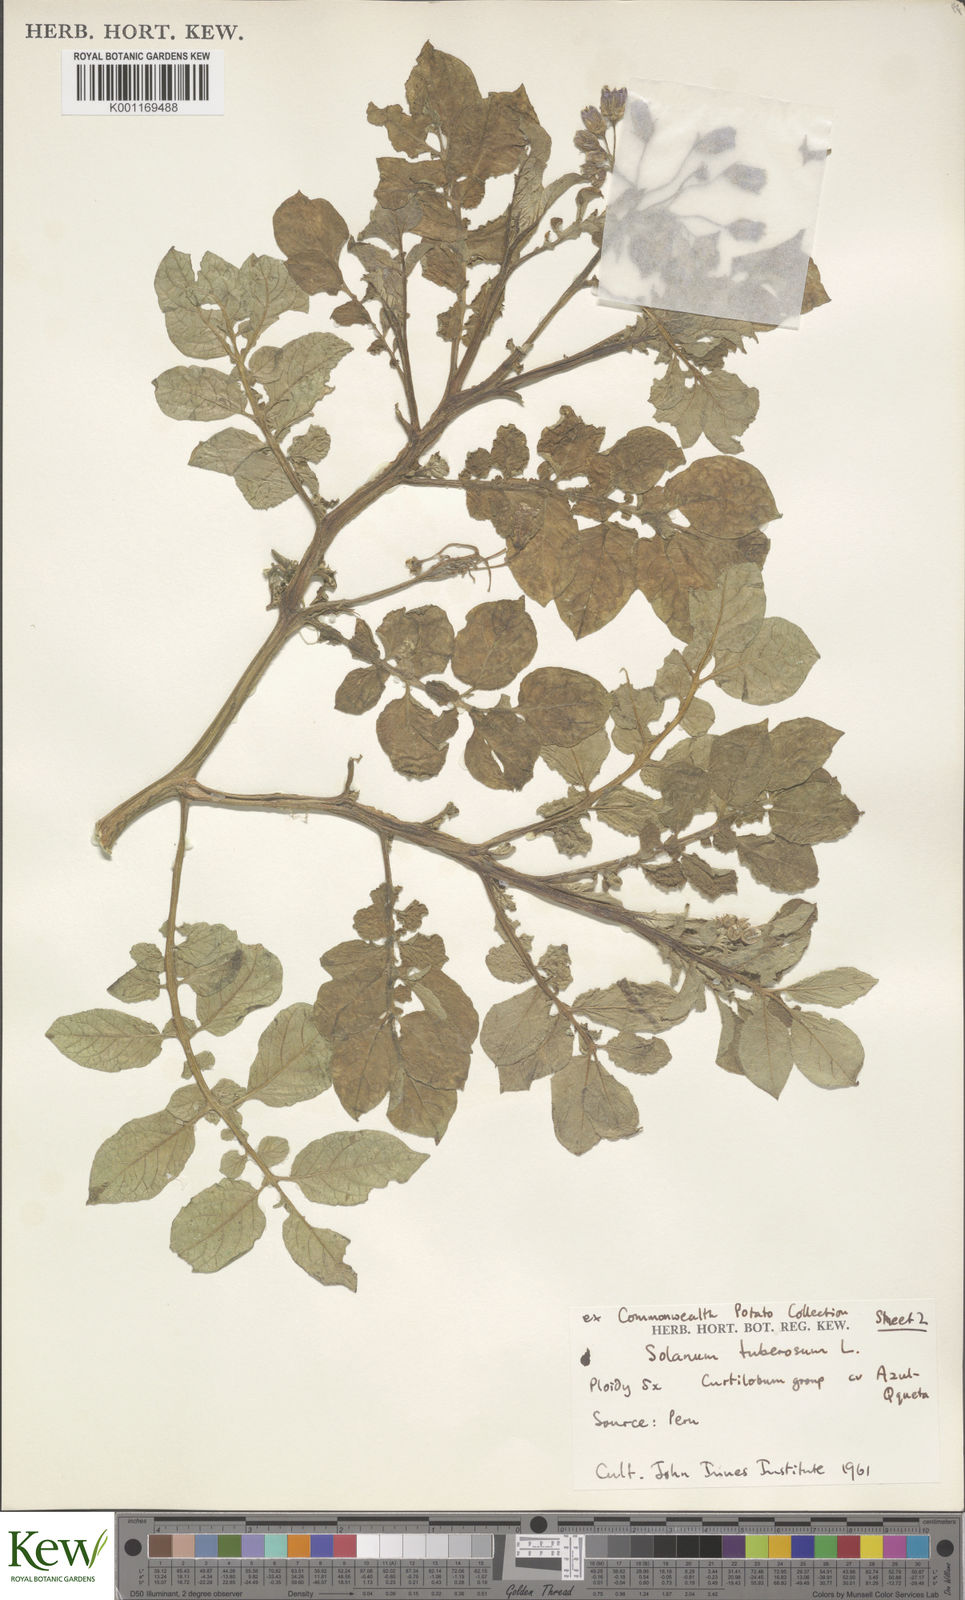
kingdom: Plantae
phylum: Tracheophyta
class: Magnoliopsida
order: Solanales
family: Solanaceae
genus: Solanum
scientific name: Solanum curtilobum
